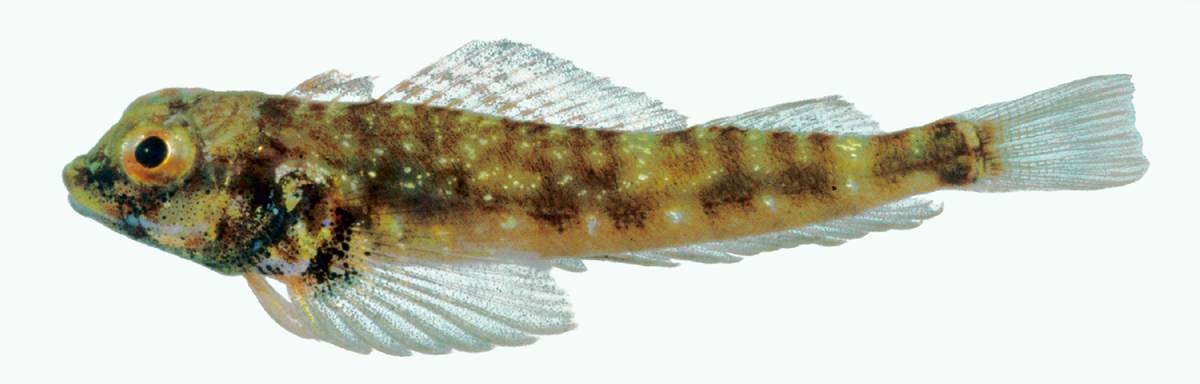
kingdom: Animalia
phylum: Chordata
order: Perciformes
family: Tripterygiidae
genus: Helcogramma
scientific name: Helcogramma alkamr
